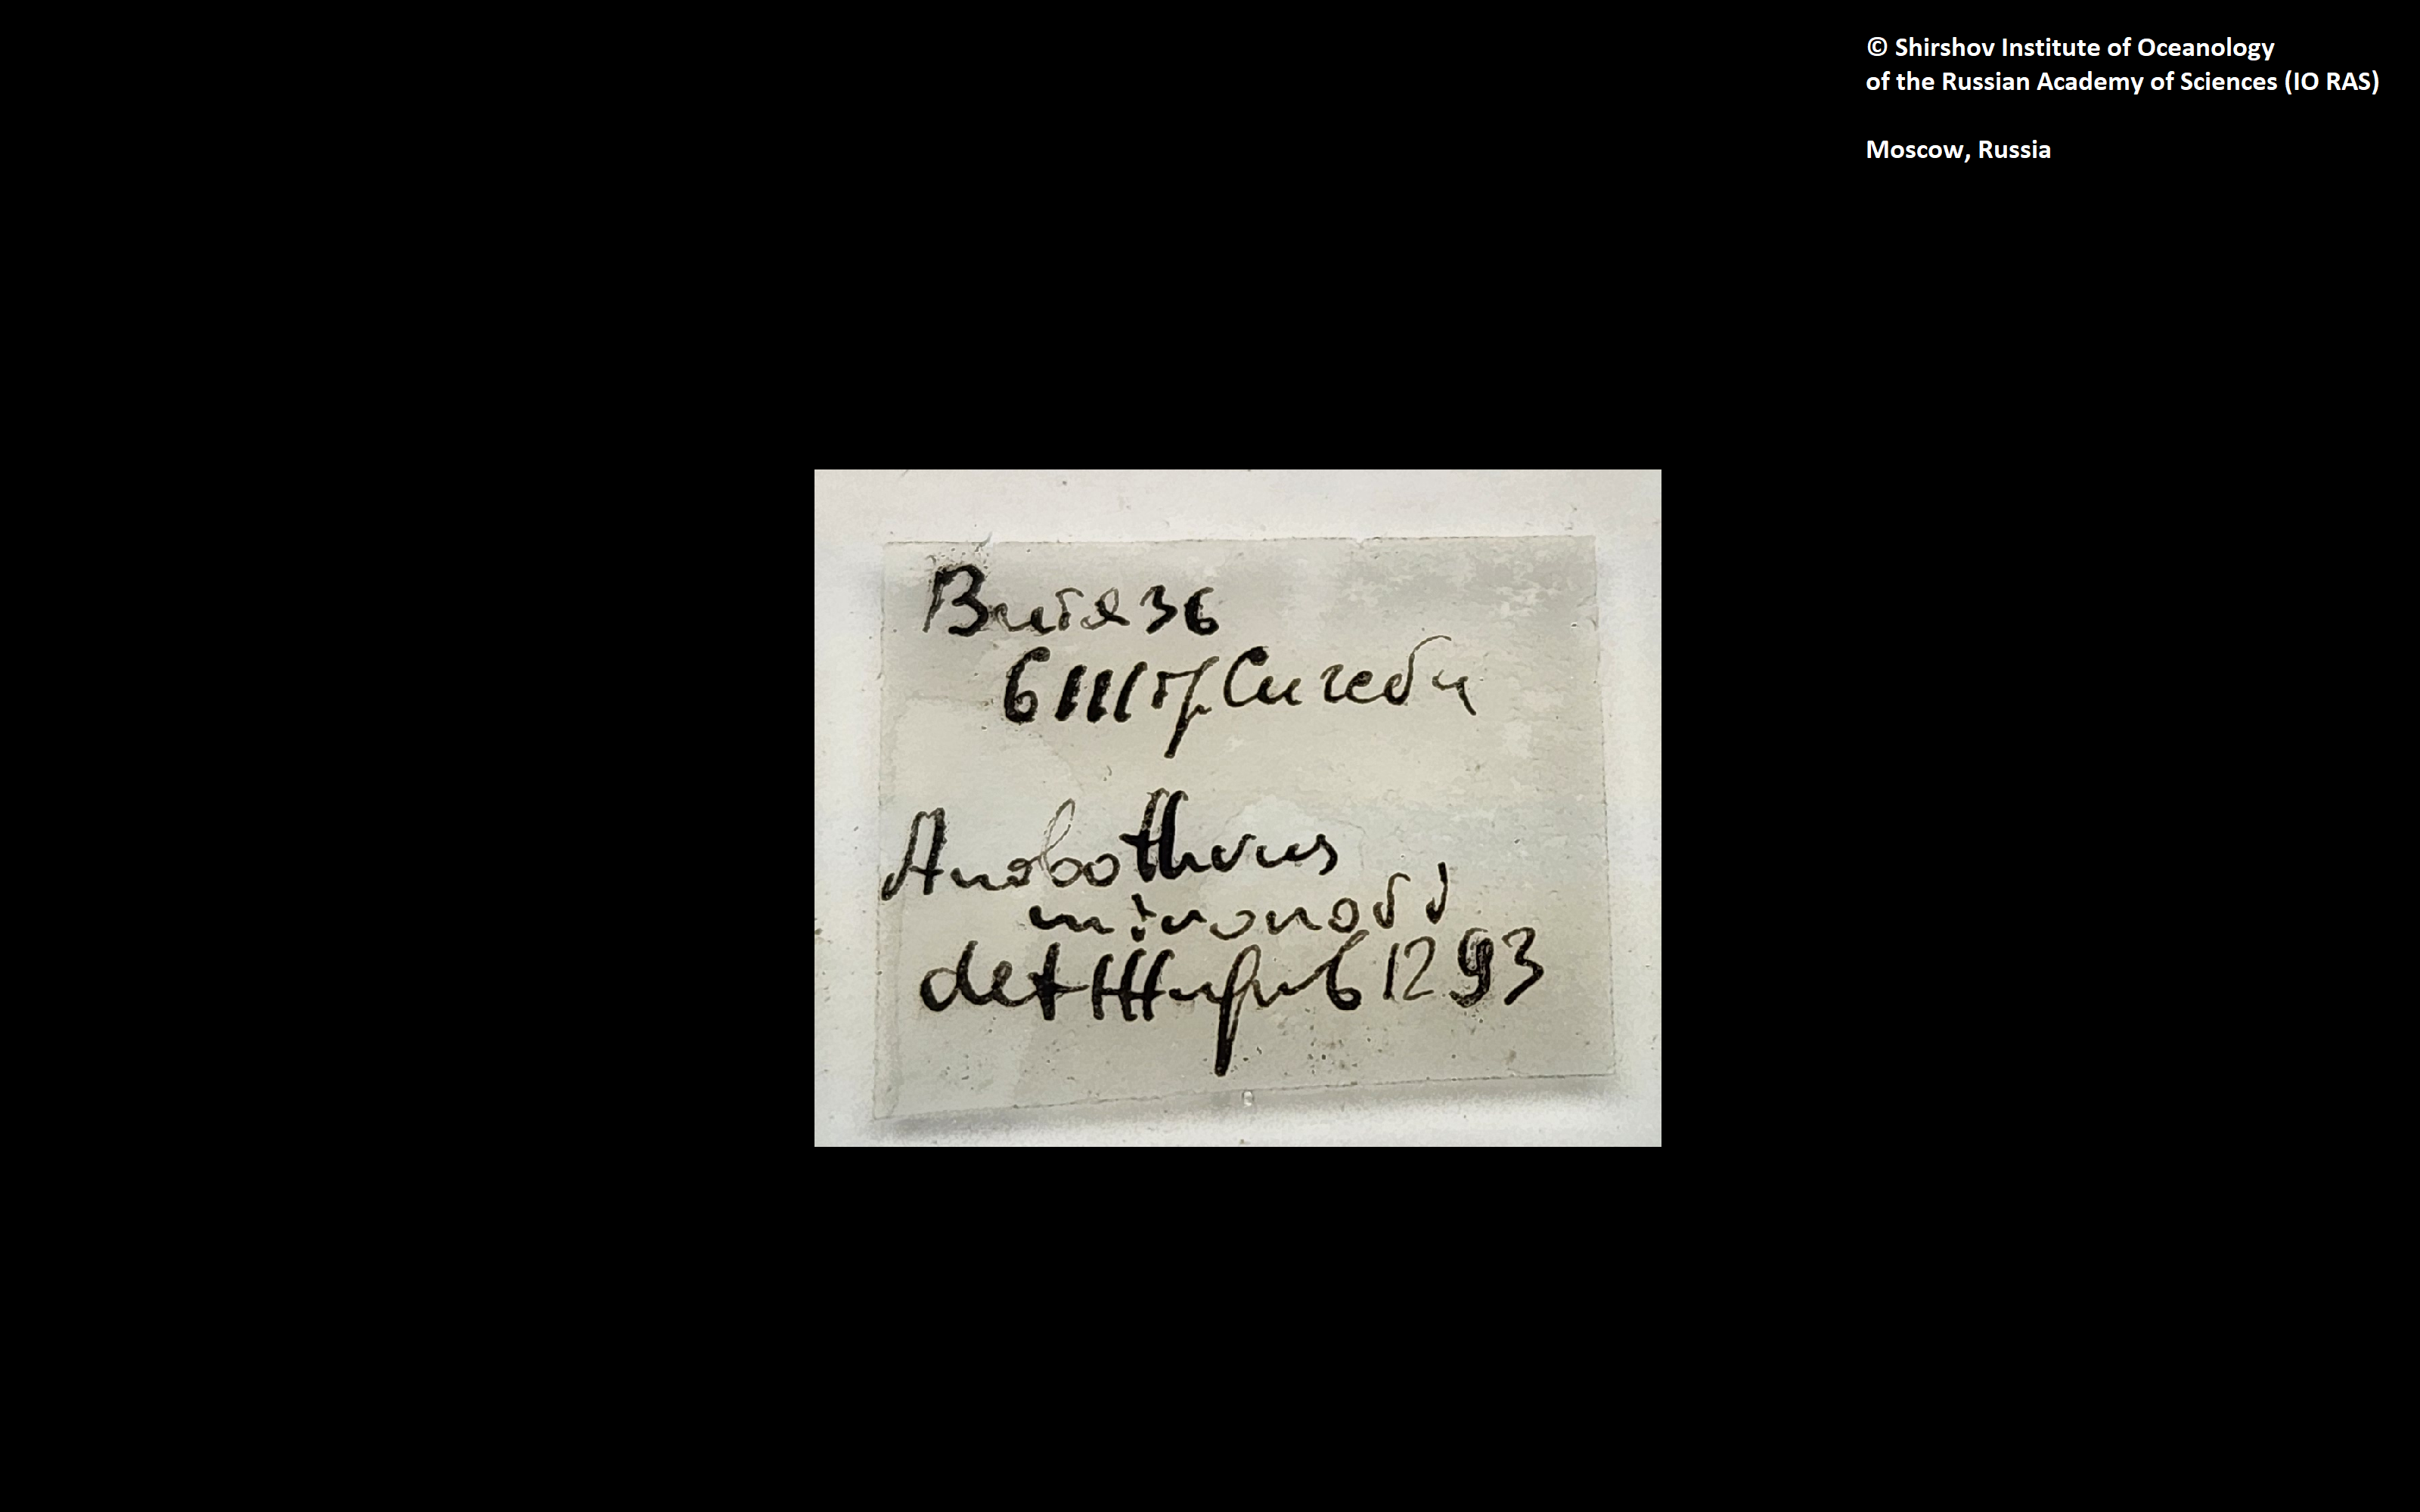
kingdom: Animalia
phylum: Annelida
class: Polychaeta
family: Ampharetidae
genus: Anobothrus
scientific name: Anobothrus mironovi
